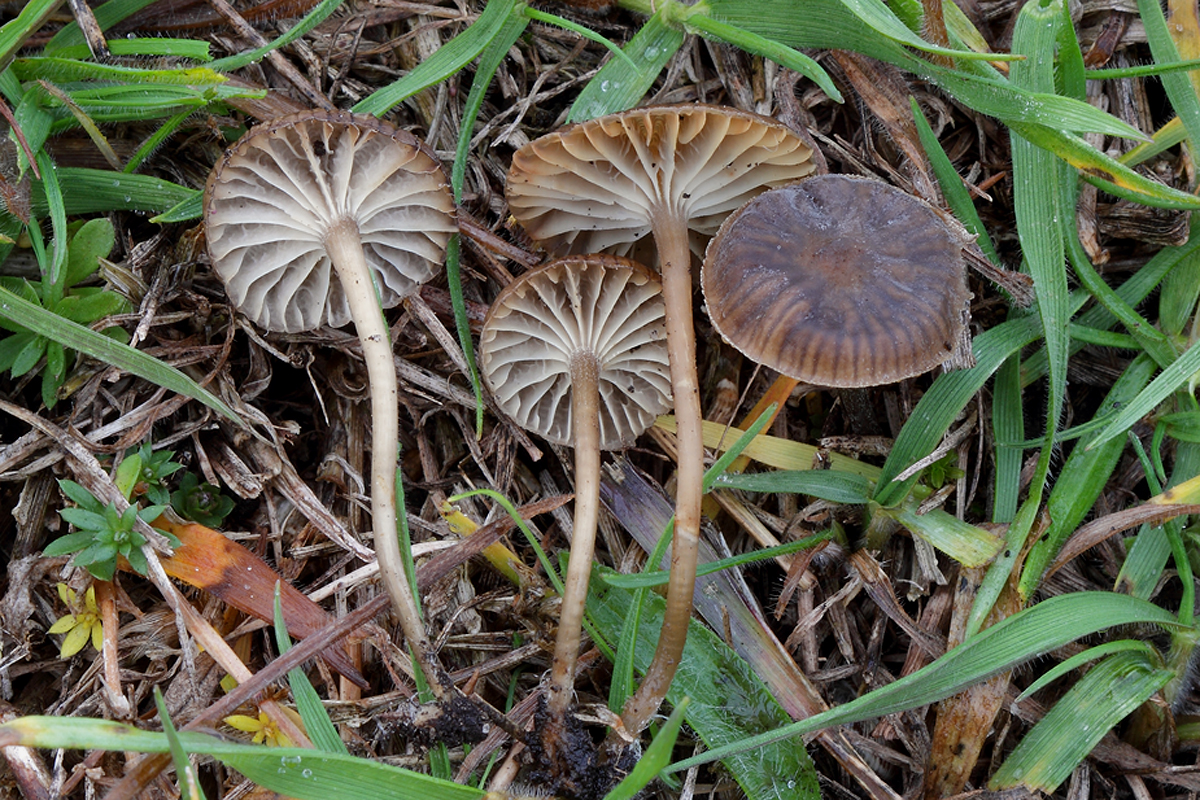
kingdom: Fungi
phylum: Basidiomycota
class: Agaricomycetes
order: Agaricales
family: Mycenaceae
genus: Mycena
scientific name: Mycena pseudopicta
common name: overdrevs-huesvamp
